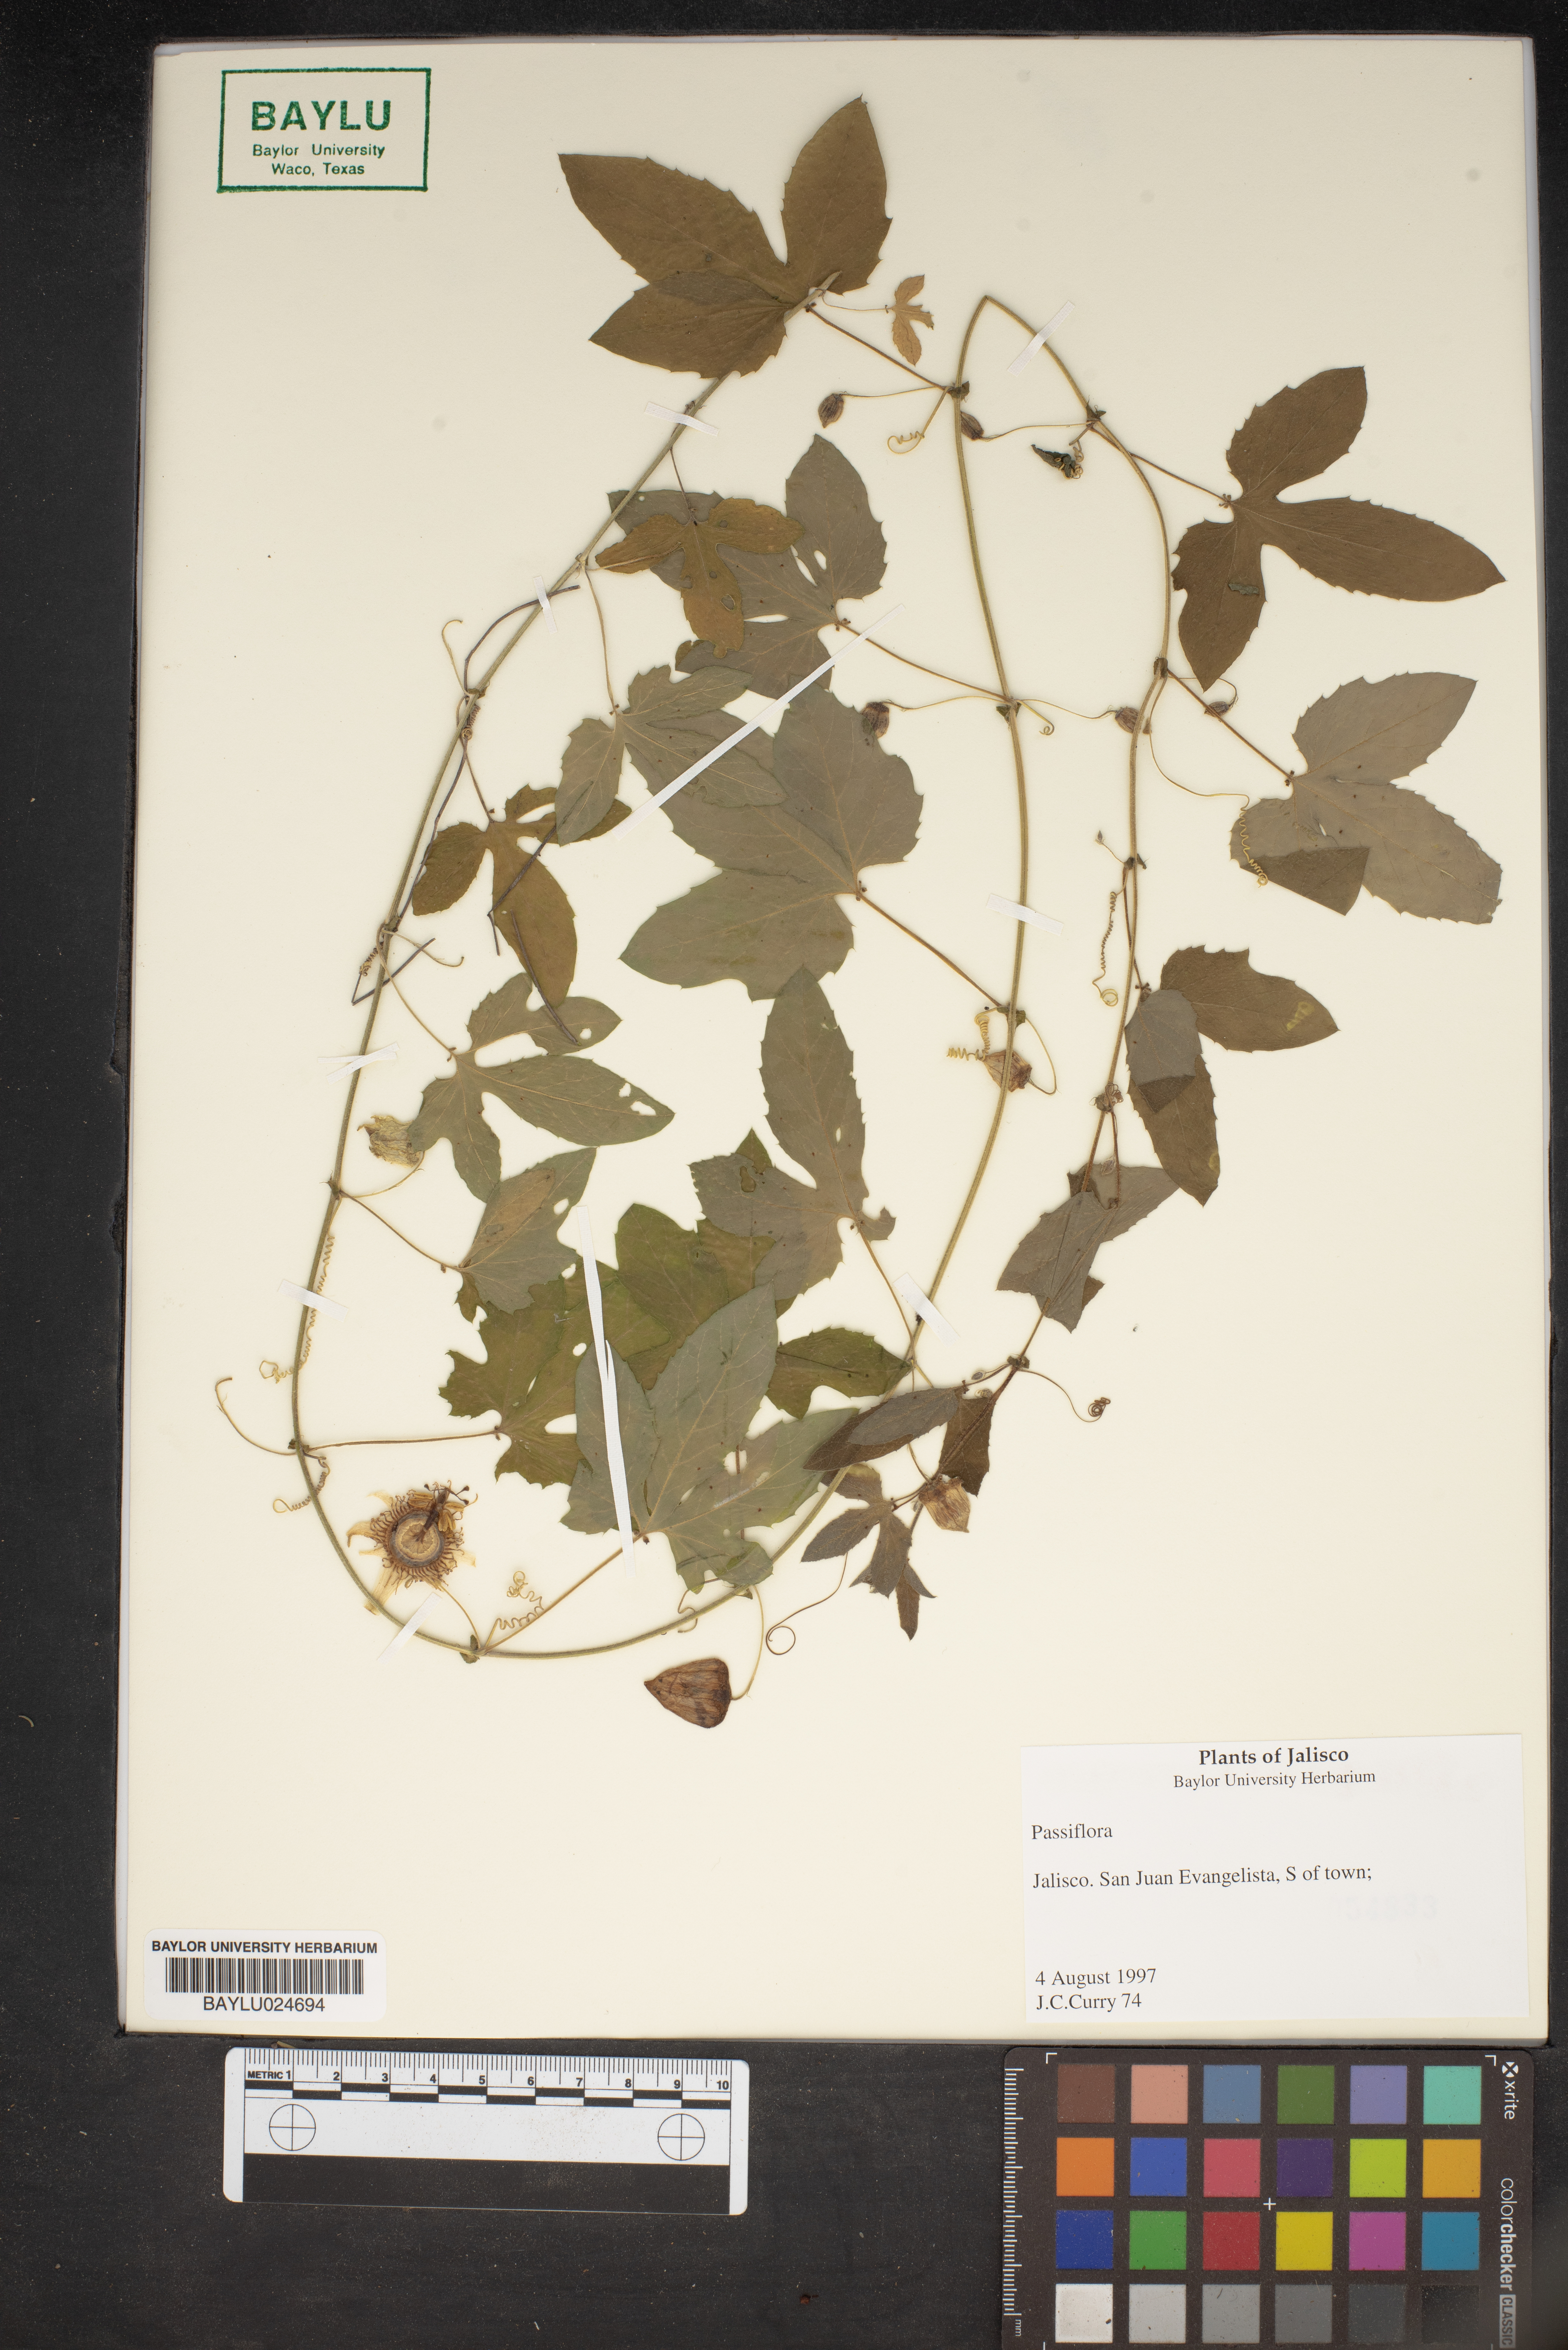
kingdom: Plantae
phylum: Tracheophyta
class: Magnoliopsida
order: Malpighiales
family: Passifloraceae
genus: Passiflora
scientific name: Passiflora
